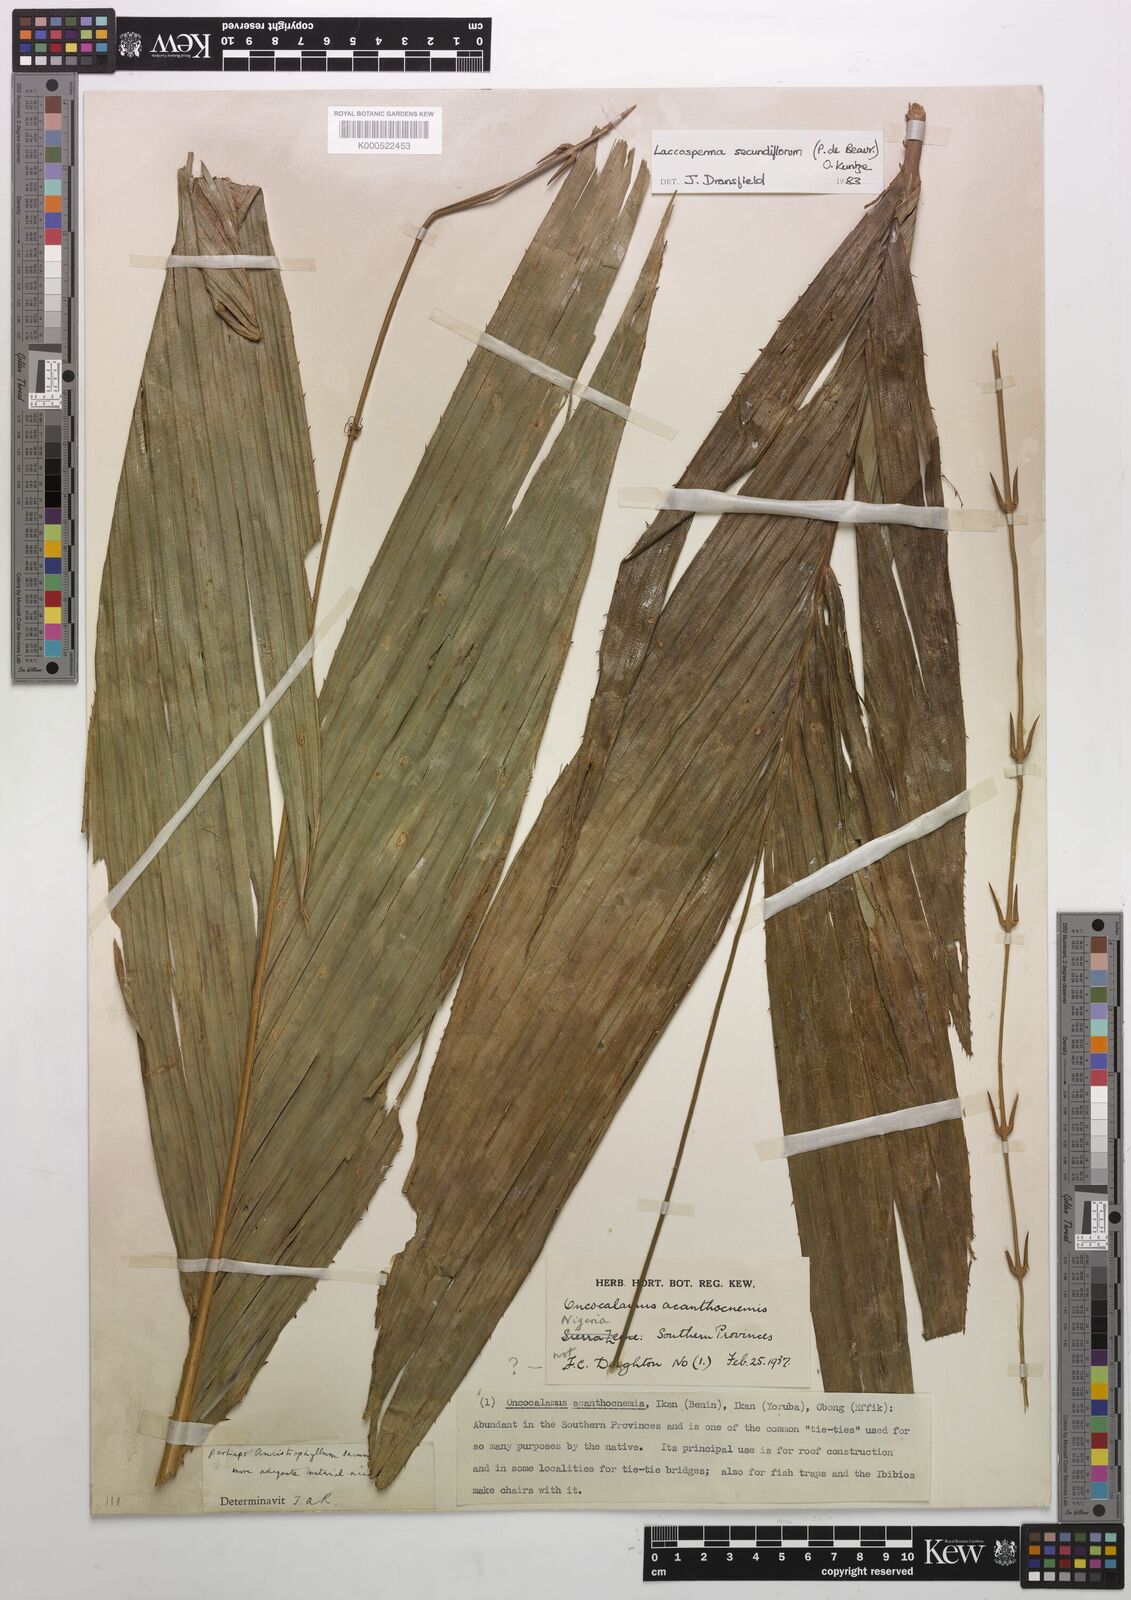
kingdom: Plantae
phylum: Tracheophyta
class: Liliopsida
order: Arecales
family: Arecaceae
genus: Laccosperma
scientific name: Laccosperma secundiflorum
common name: Rattan
